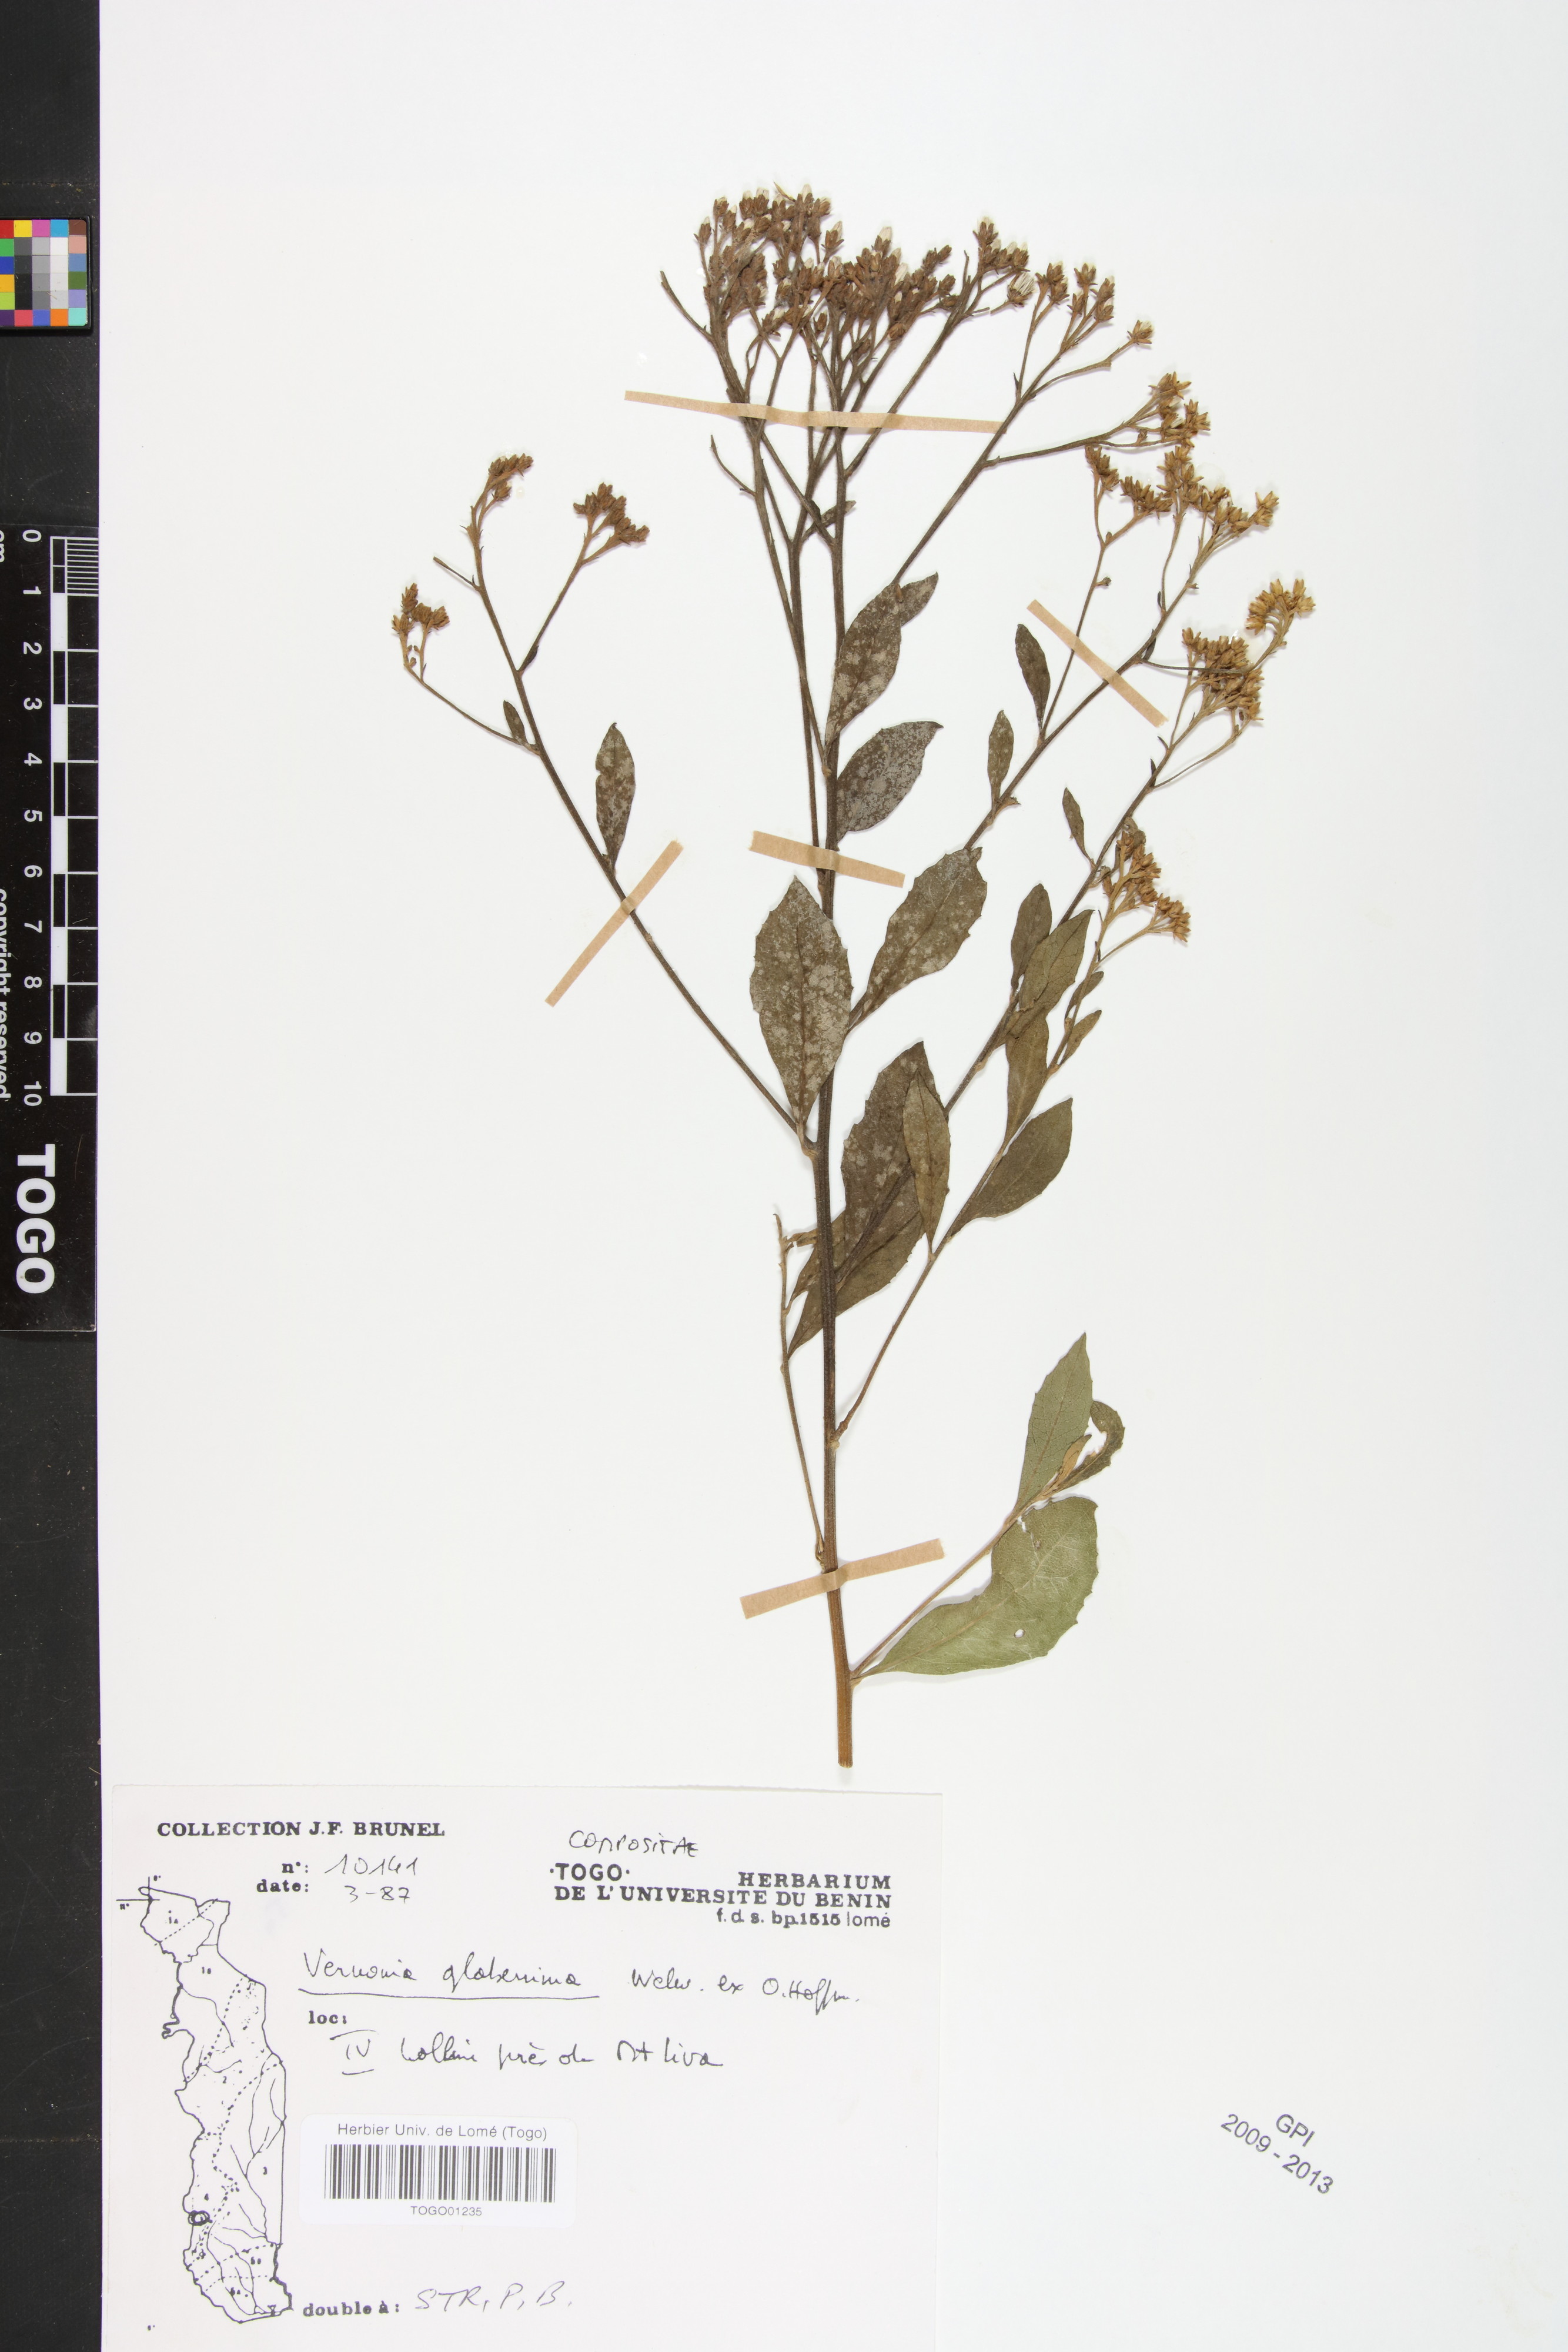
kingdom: Plantae
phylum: Tracheophyta
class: Magnoliopsida
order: Asterales
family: Asteraceae
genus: Gymnanthemum
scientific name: Gymnanthemum glaberrimum
